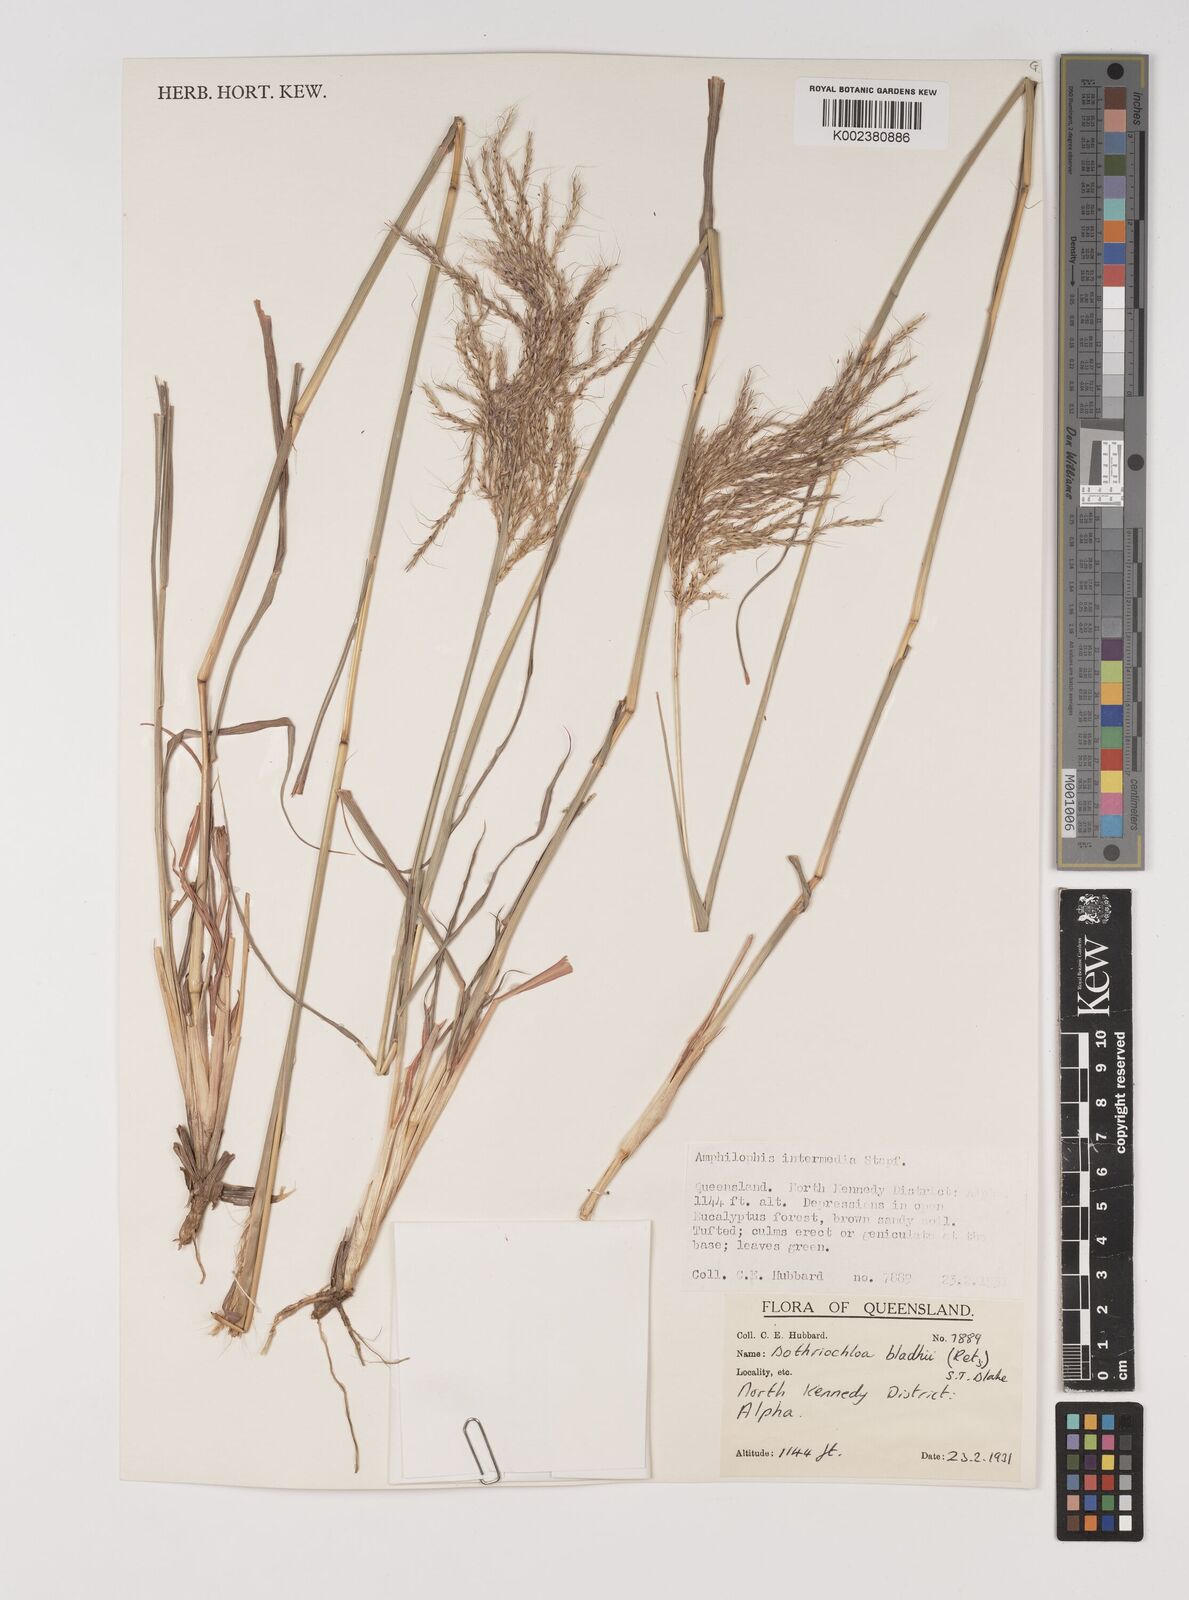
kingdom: Plantae
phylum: Tracheophyta
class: Liliopsida
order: Poales
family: Poaceae
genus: Bothriochloa
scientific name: Bothriochloa bladhii
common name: Caucasian bluestem
